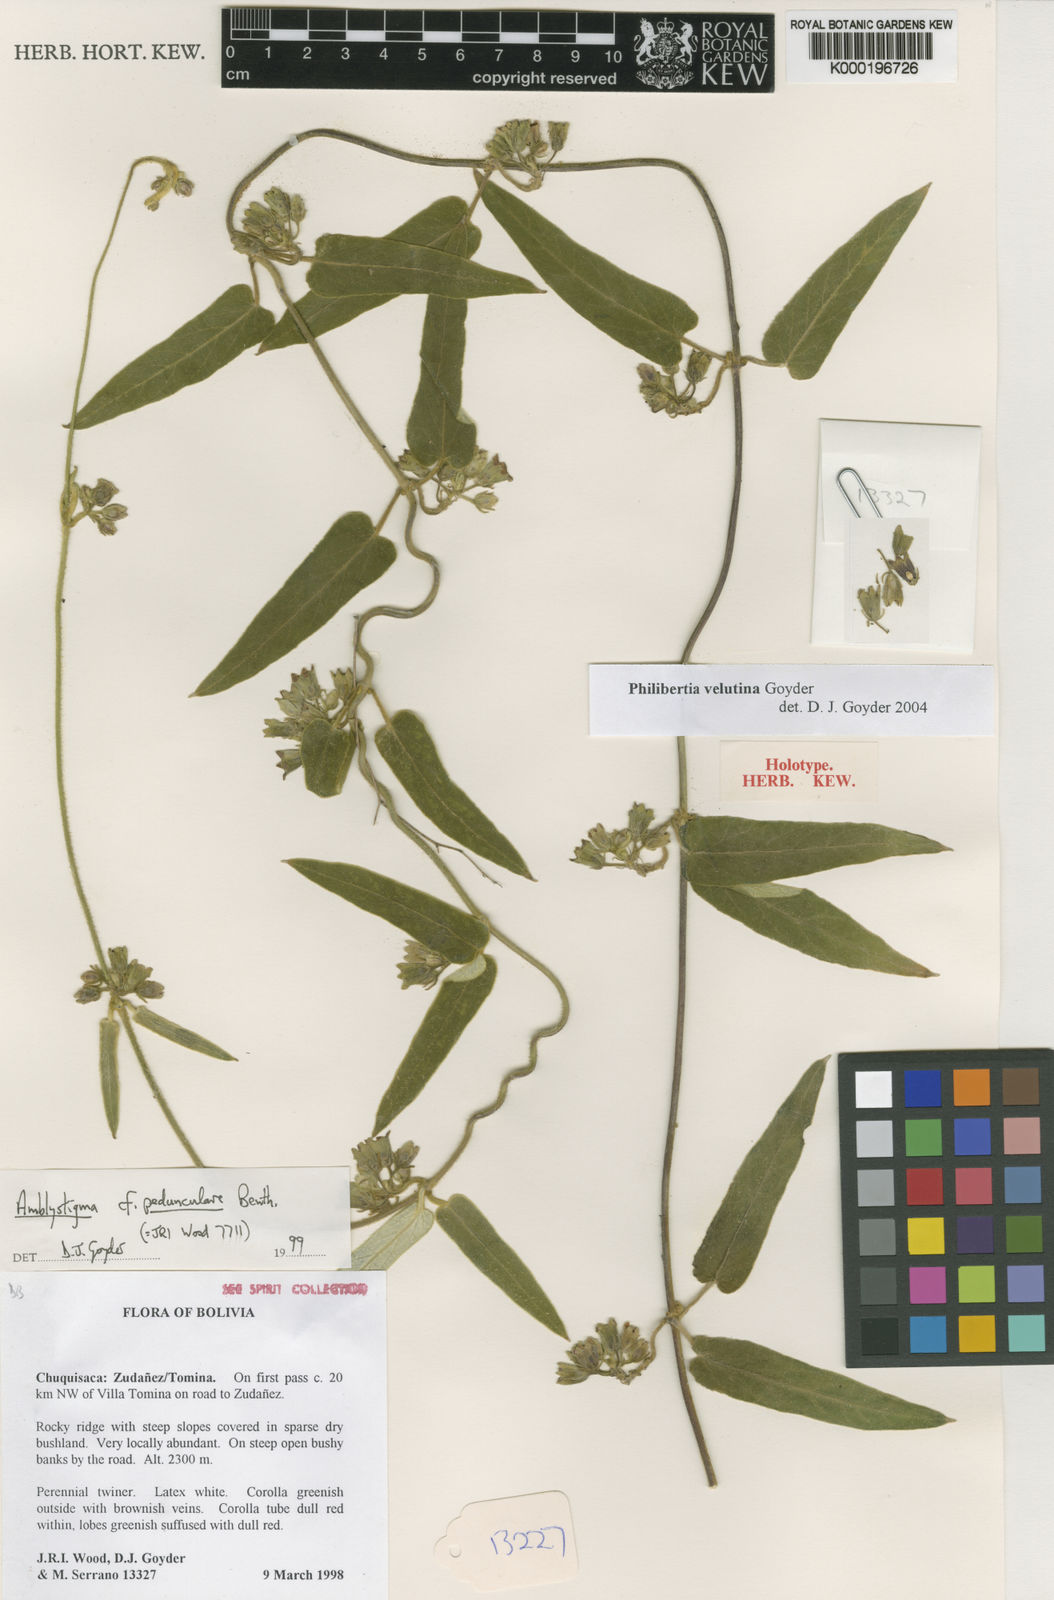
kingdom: Plantae
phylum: Tracheophyta
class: Magnoliopsida
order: Gentianales
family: Apocynaceae
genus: Philibertia
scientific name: Philibertia velutina
